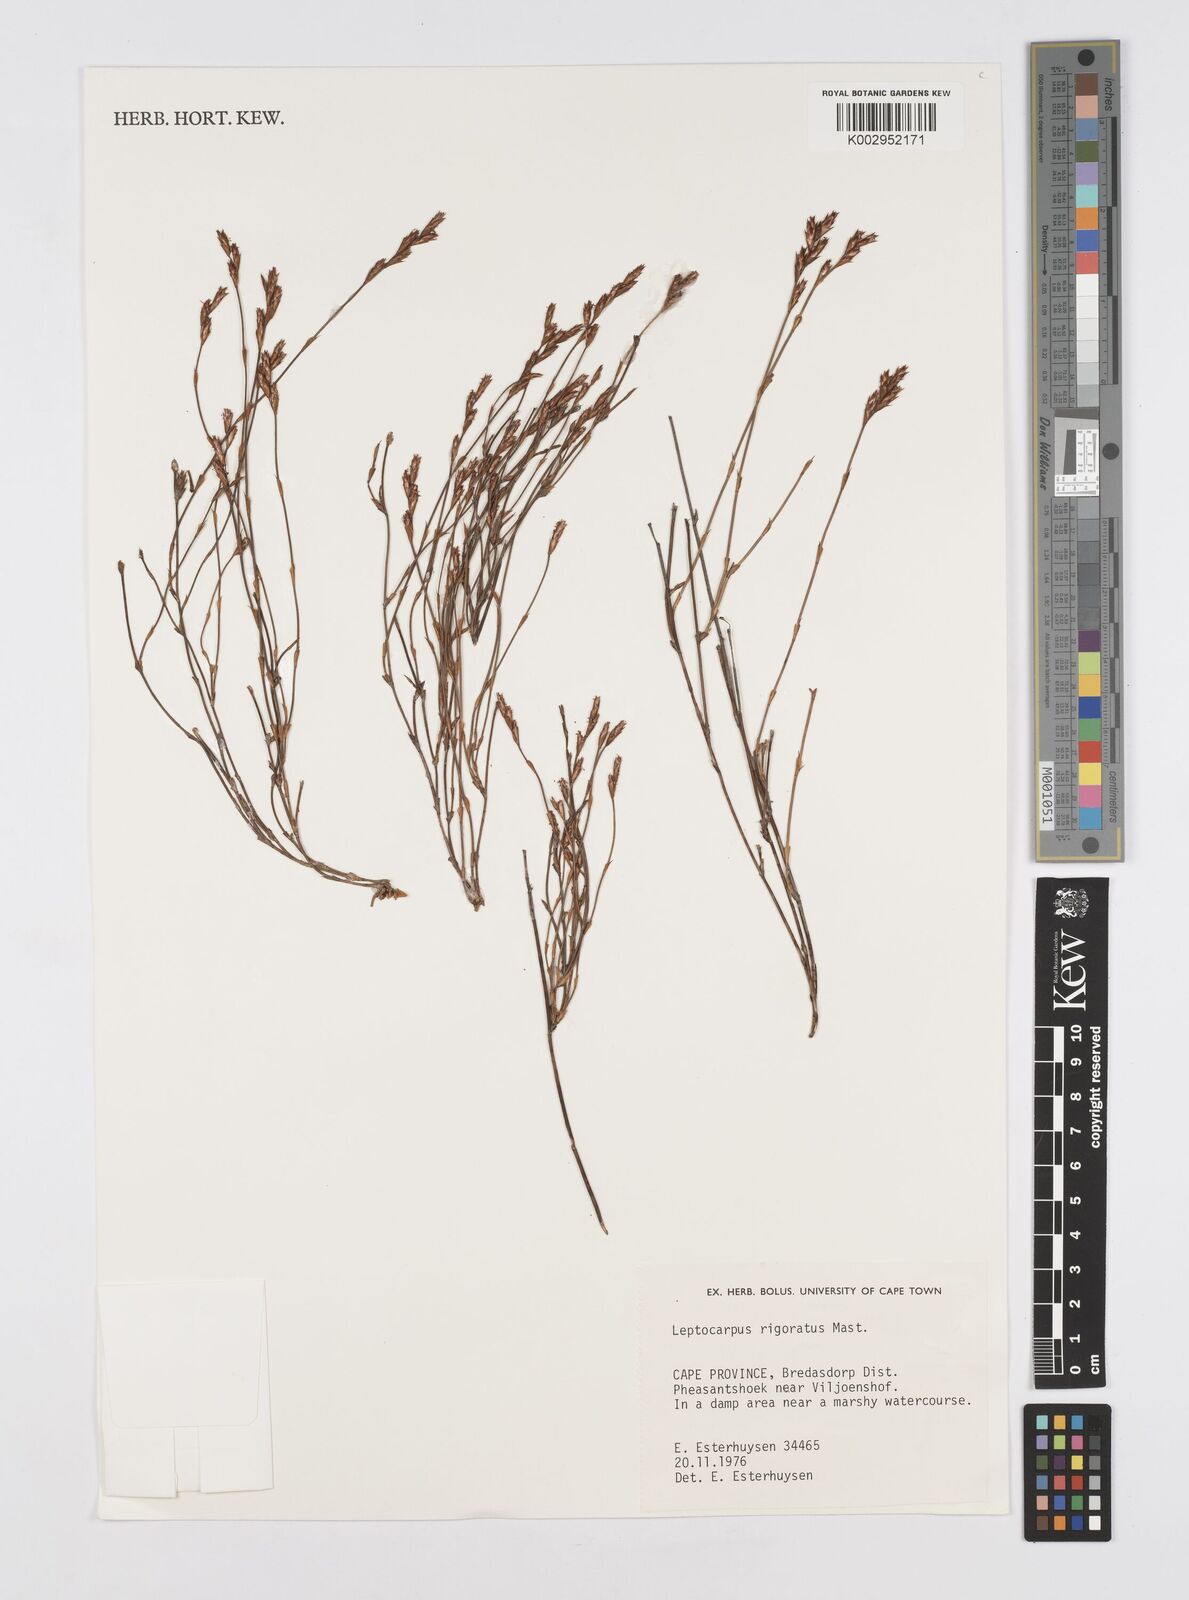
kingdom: Plantae
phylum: Tracheophyta
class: Liliopsida
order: Poales
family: Restionaceae
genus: Restio
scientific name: Restio rigoratus
